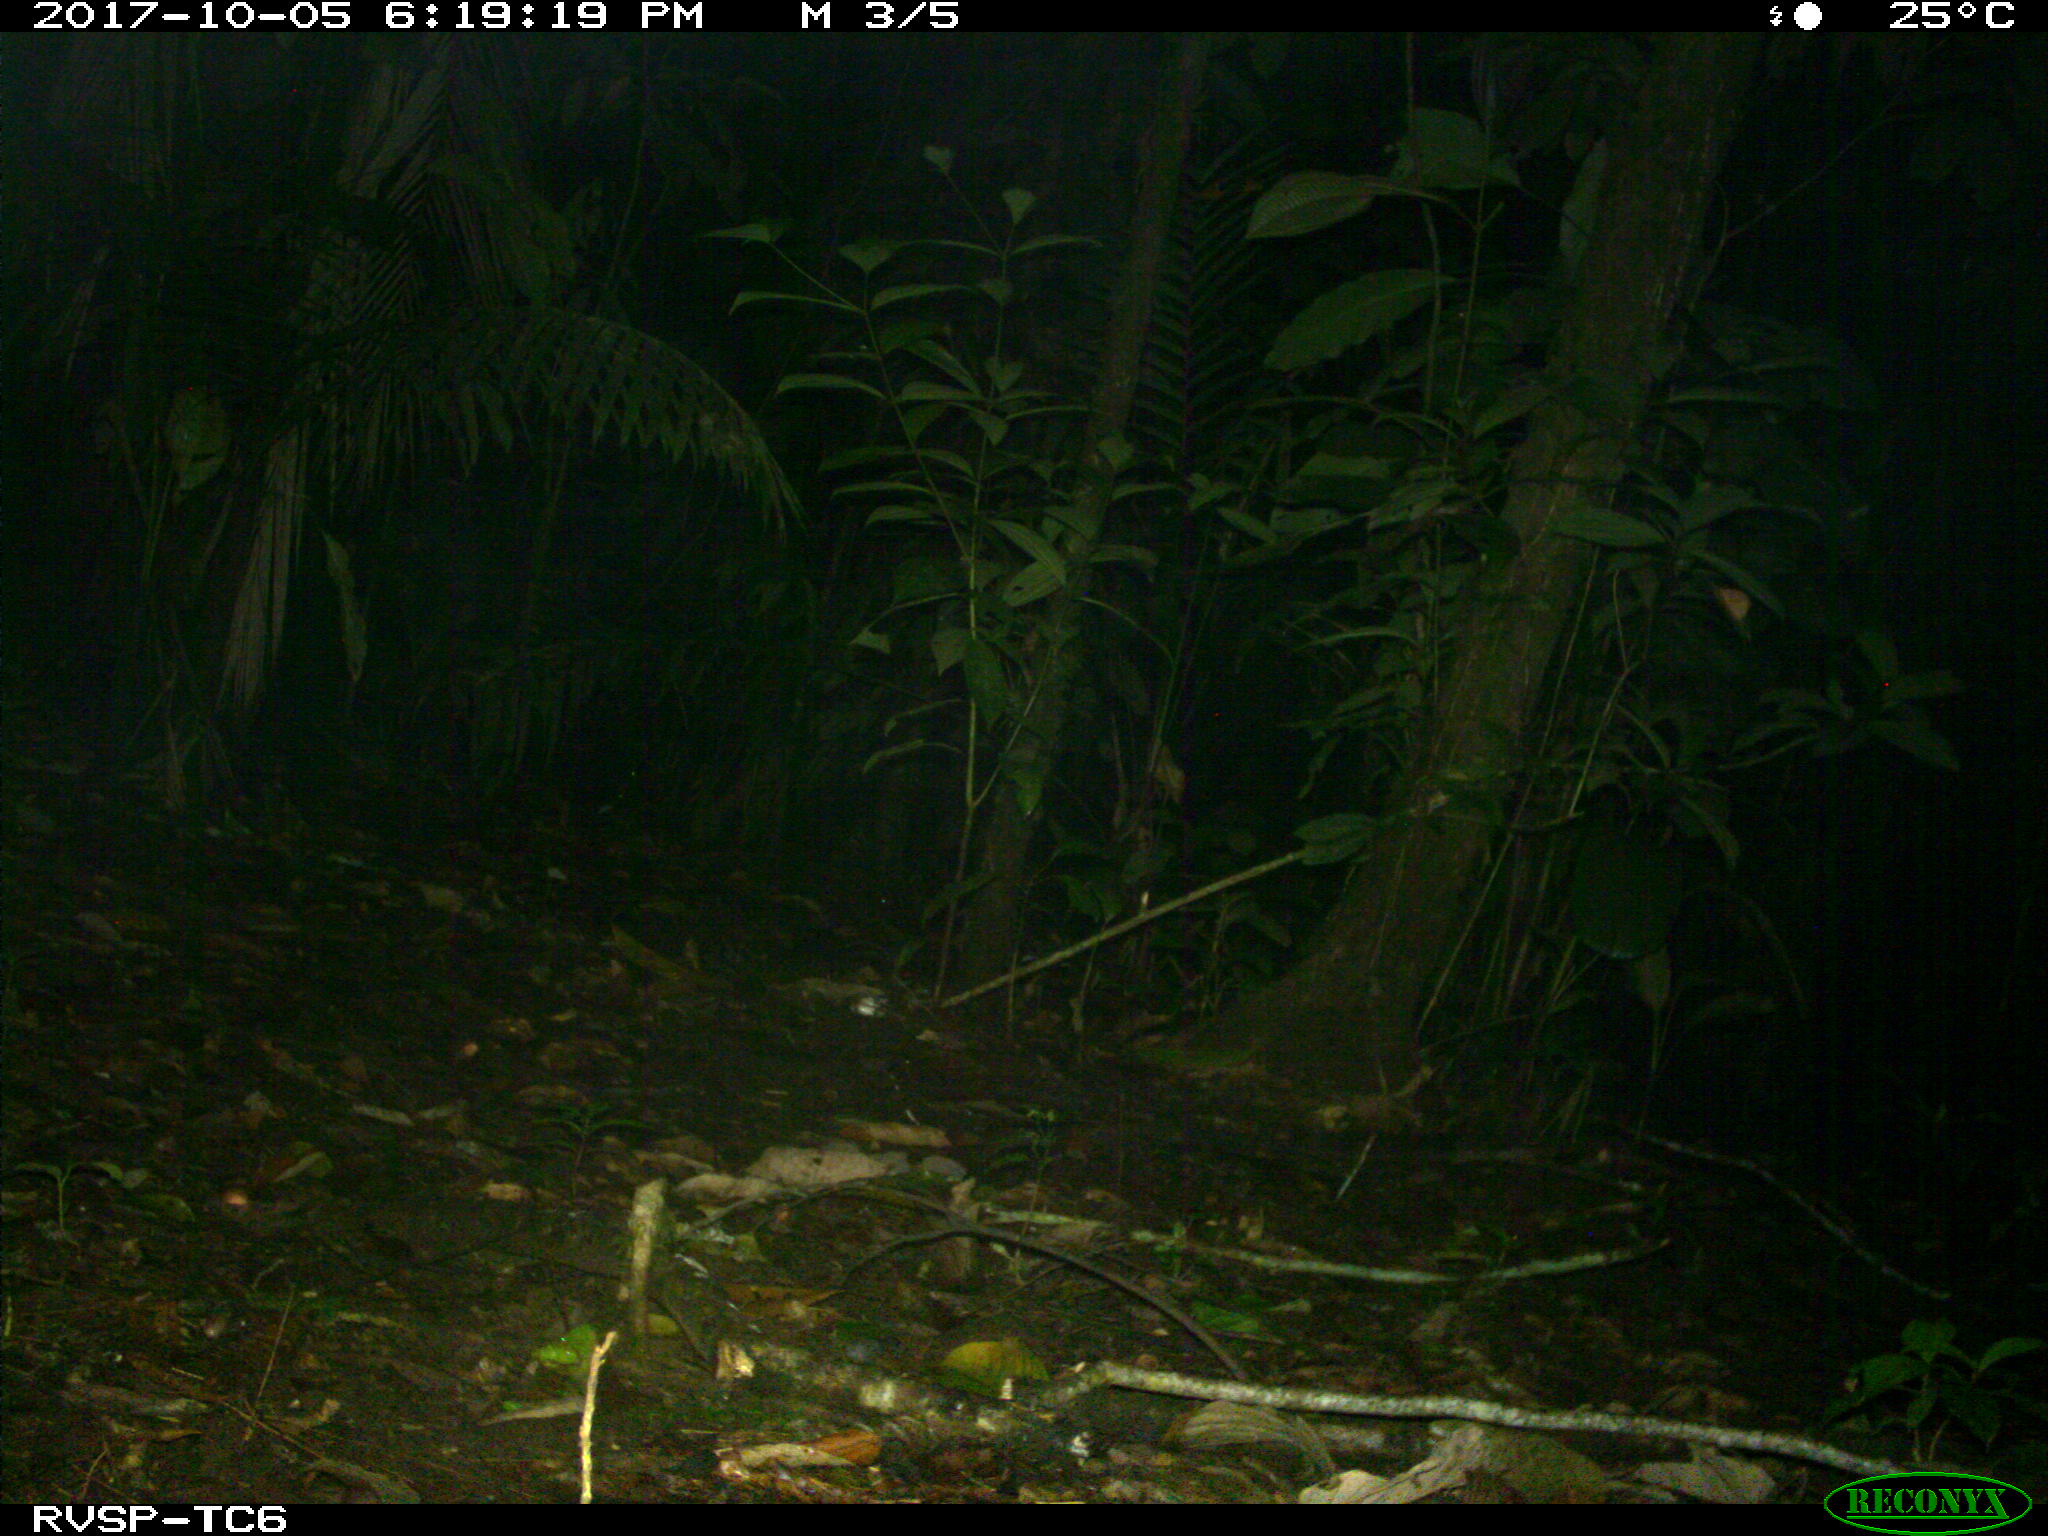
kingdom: Animalia
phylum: Chordata
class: Mammalia
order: Artiodactyla
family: Tayassuidae
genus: Tayassu
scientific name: Tayassu pecari
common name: White-lipped peccary
